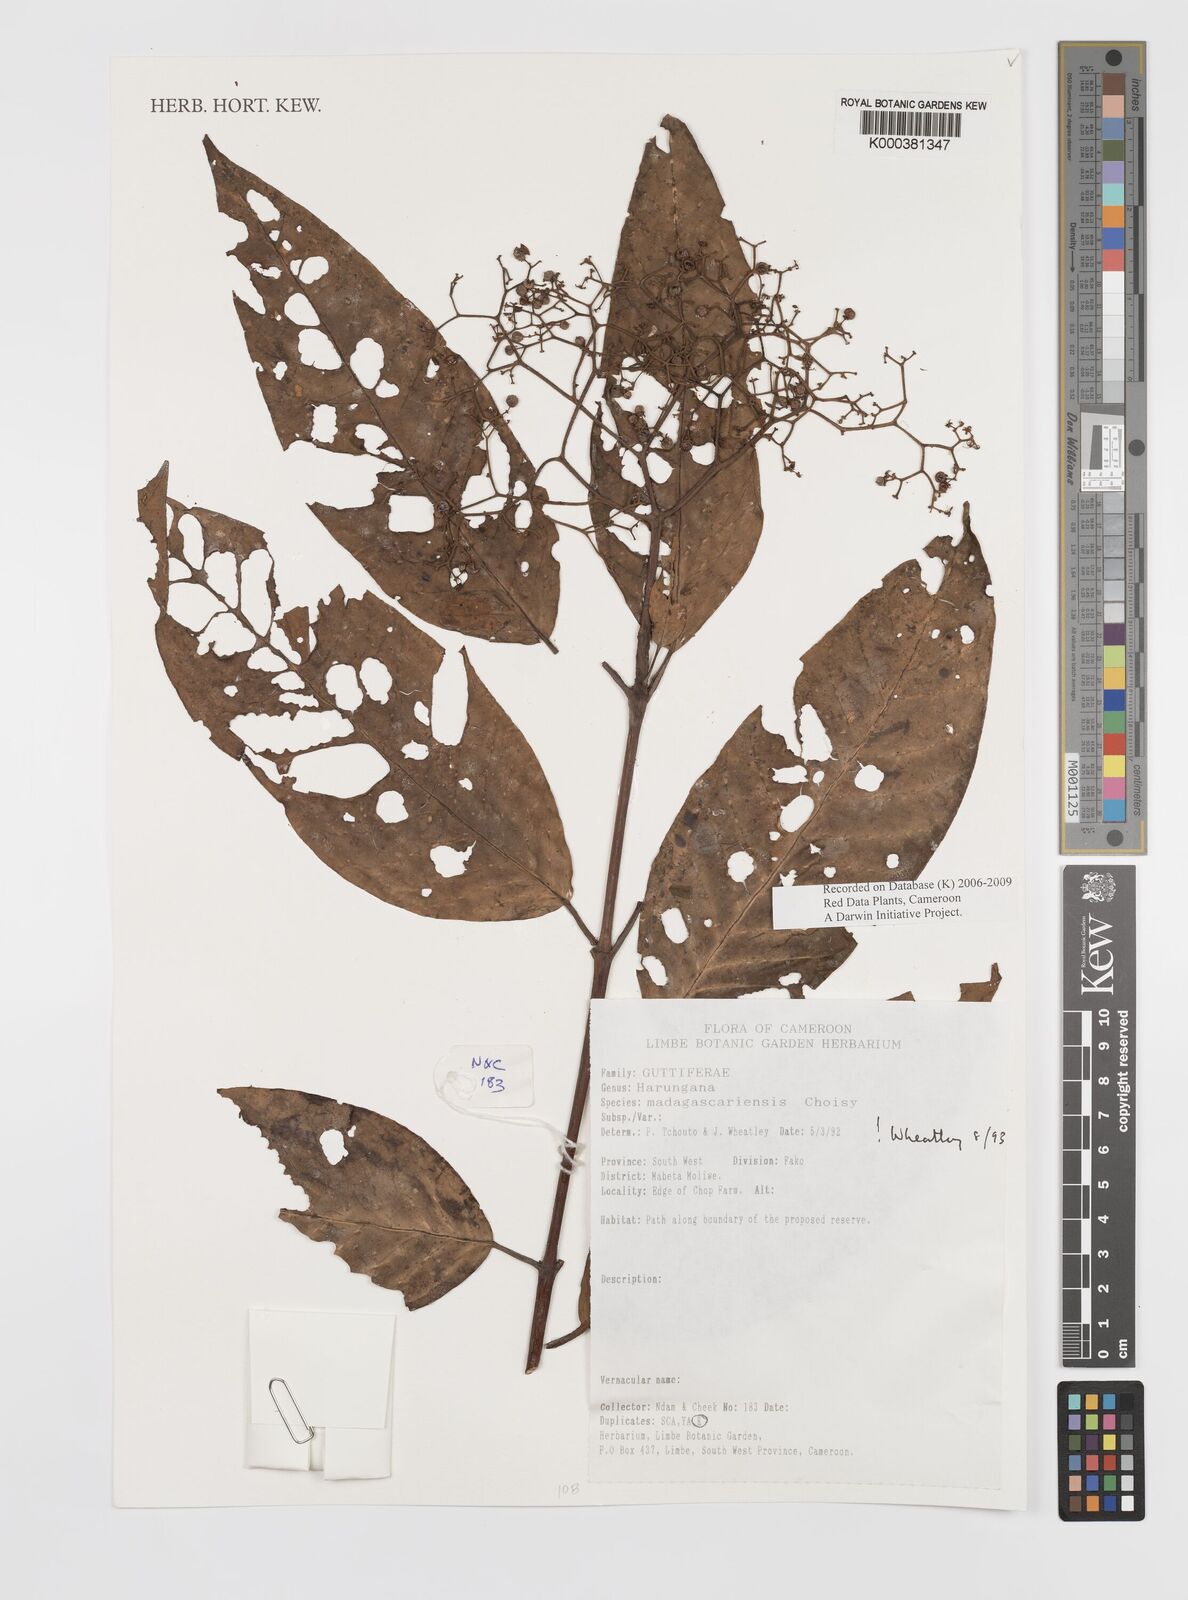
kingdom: Plantae
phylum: Tracheophyta
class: Magnoliopsida
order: Malpighiales
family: Hypericaceae
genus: Harungana
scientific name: Harungana madagascariensis
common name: Orange milktree
